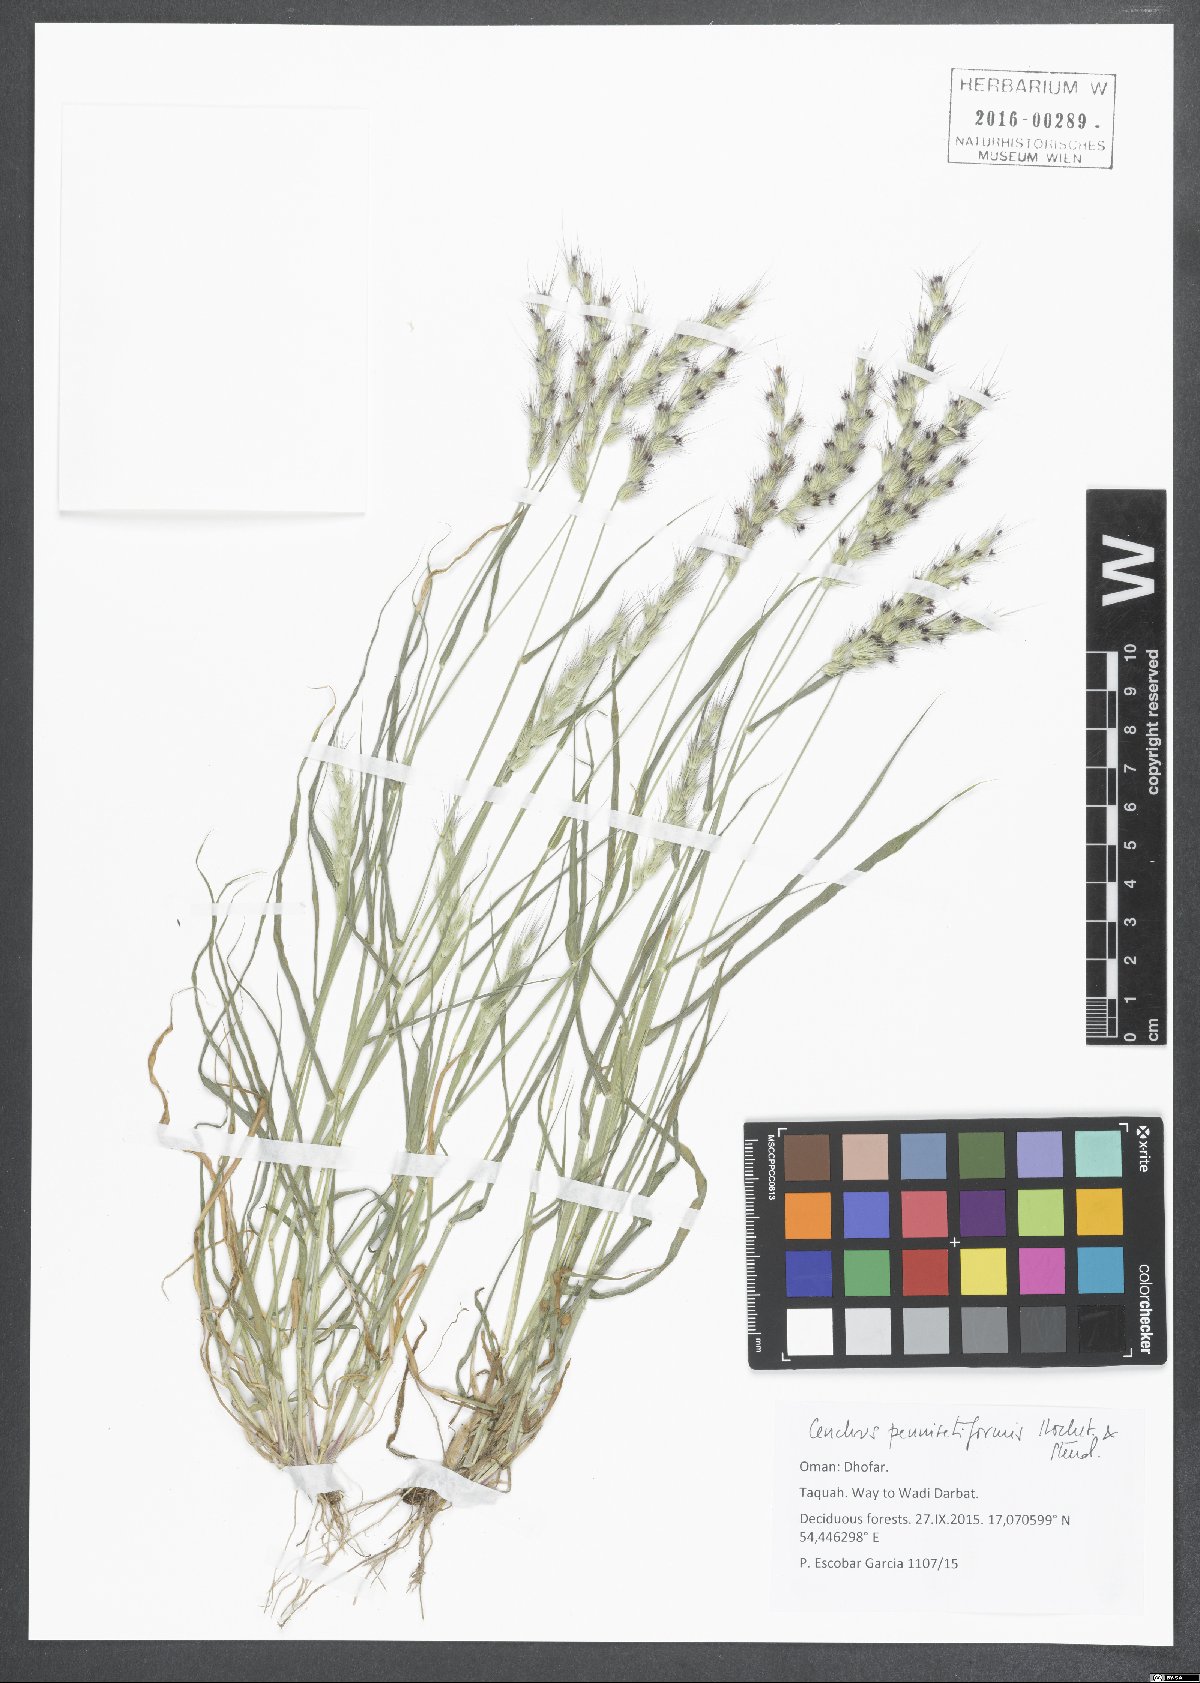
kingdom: Plantae
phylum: Tracheophyta
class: Liliopsida
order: Poales
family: Poaceae
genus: Cenchrus
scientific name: Cenchrus pennisetiformis
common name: Cloncurry
